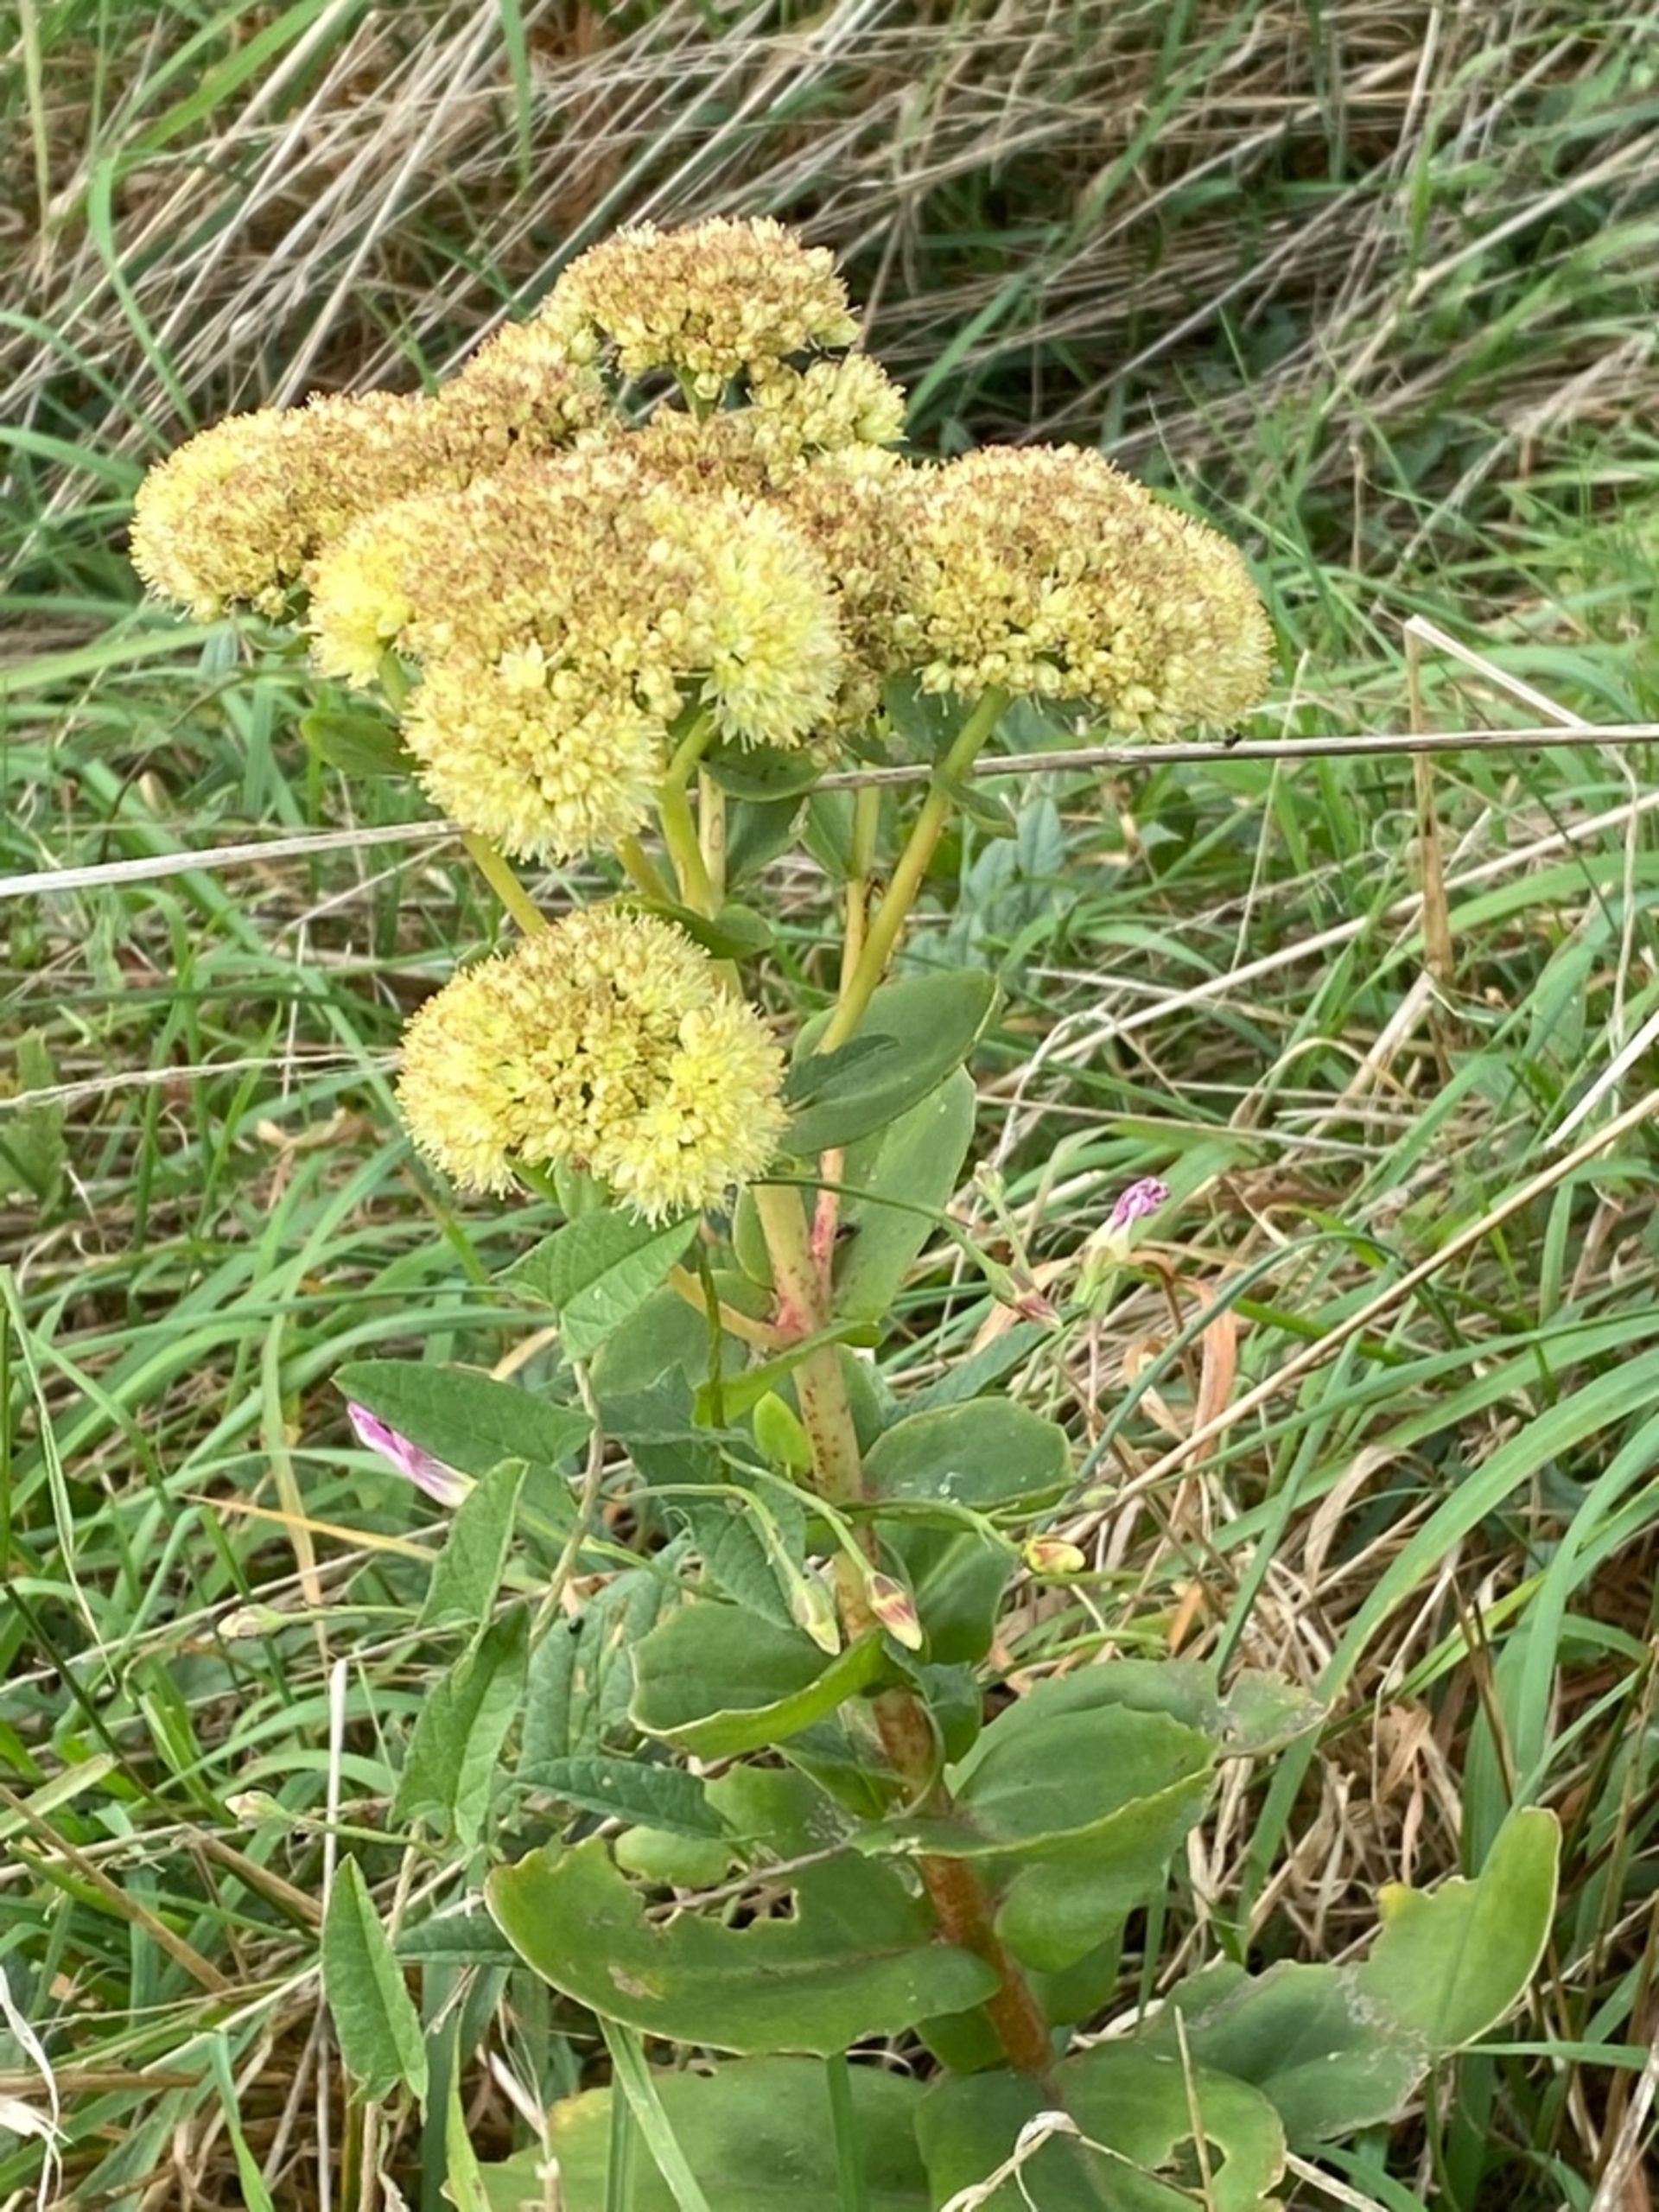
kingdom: Plantae
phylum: Tracheophyta
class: Magnoliopsida
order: Saxifragales
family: Crassulaceae
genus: Hylotelephium
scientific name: Hylotelephium maximum
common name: Almindelig sankthansurt
